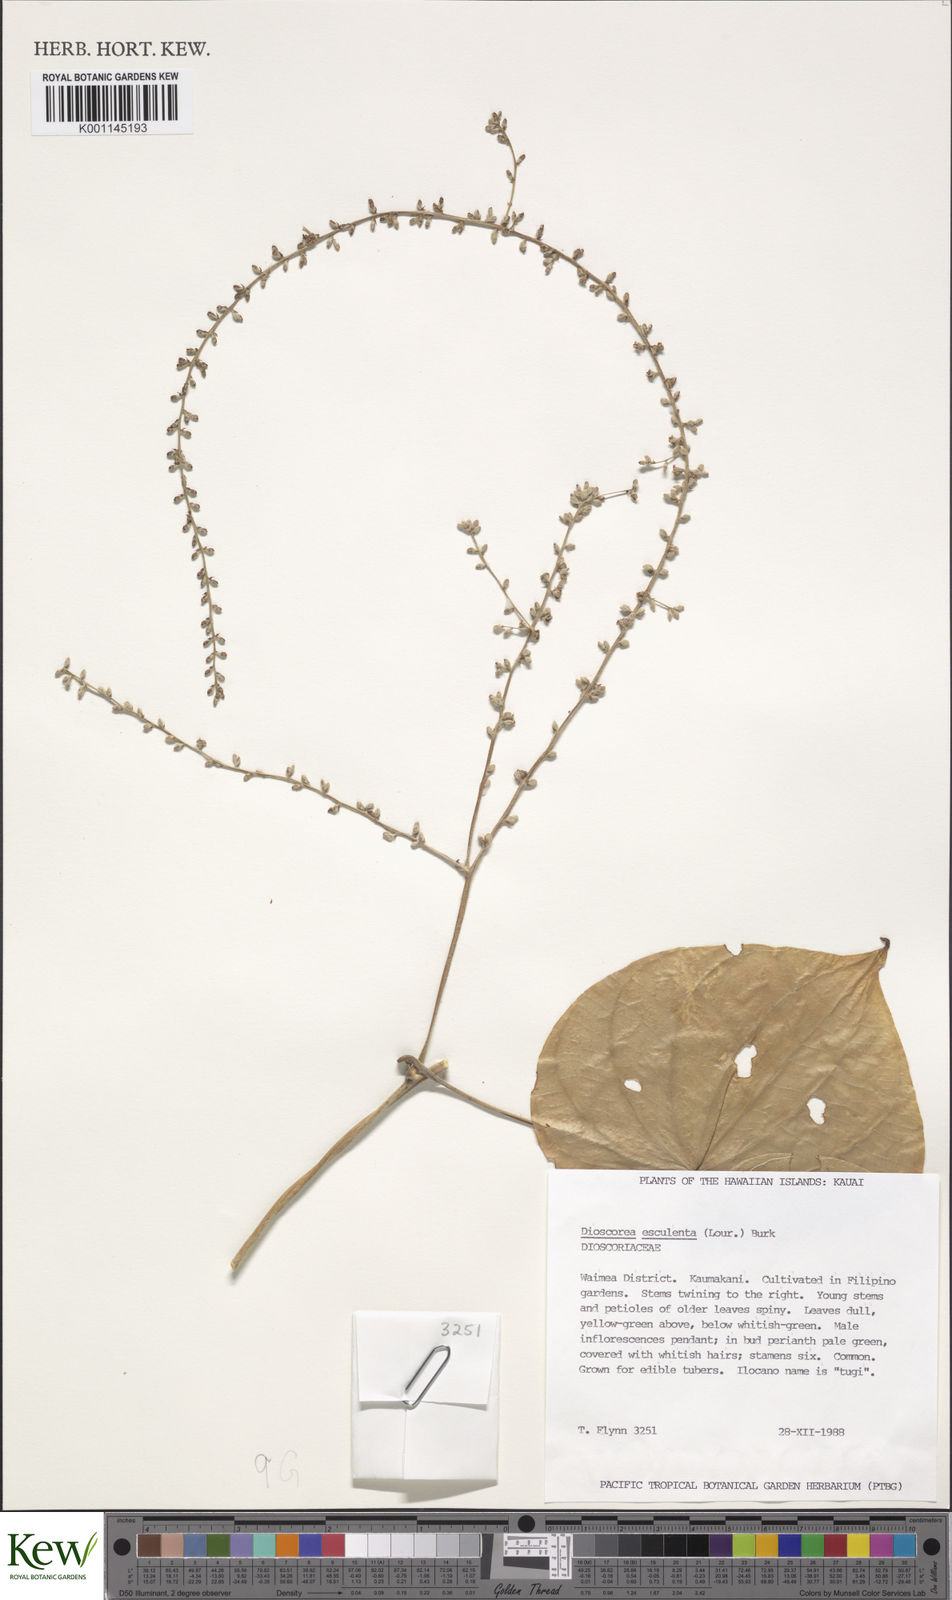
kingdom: Plantae
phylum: Tracheophyta
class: Liliopsida
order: Dioscoreales
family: Dioscoreaceae
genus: Dioscorea
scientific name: Dioscorea esculenta
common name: Chinese yam
